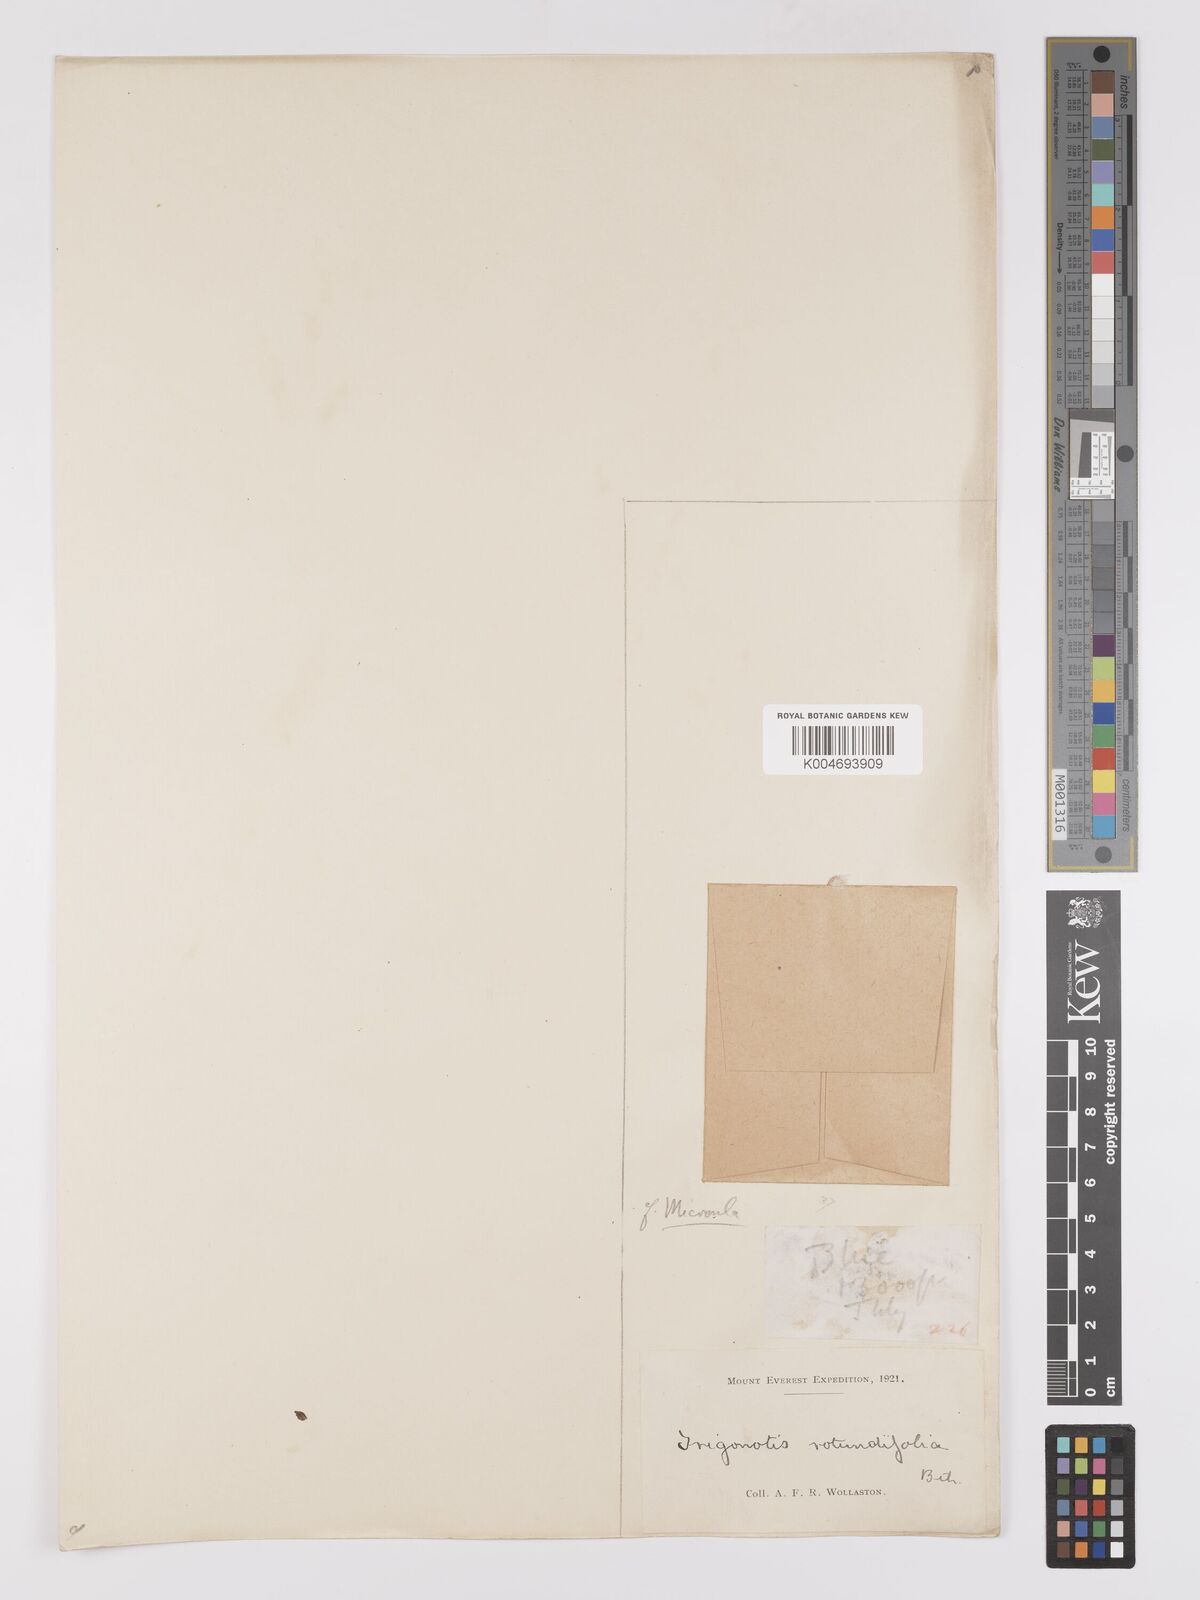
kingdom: Plantae
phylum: Tracheophyta
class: Magnoliopsida
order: Boraginales
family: Boraginaceae
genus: Microula
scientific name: Microula sikkimensis
